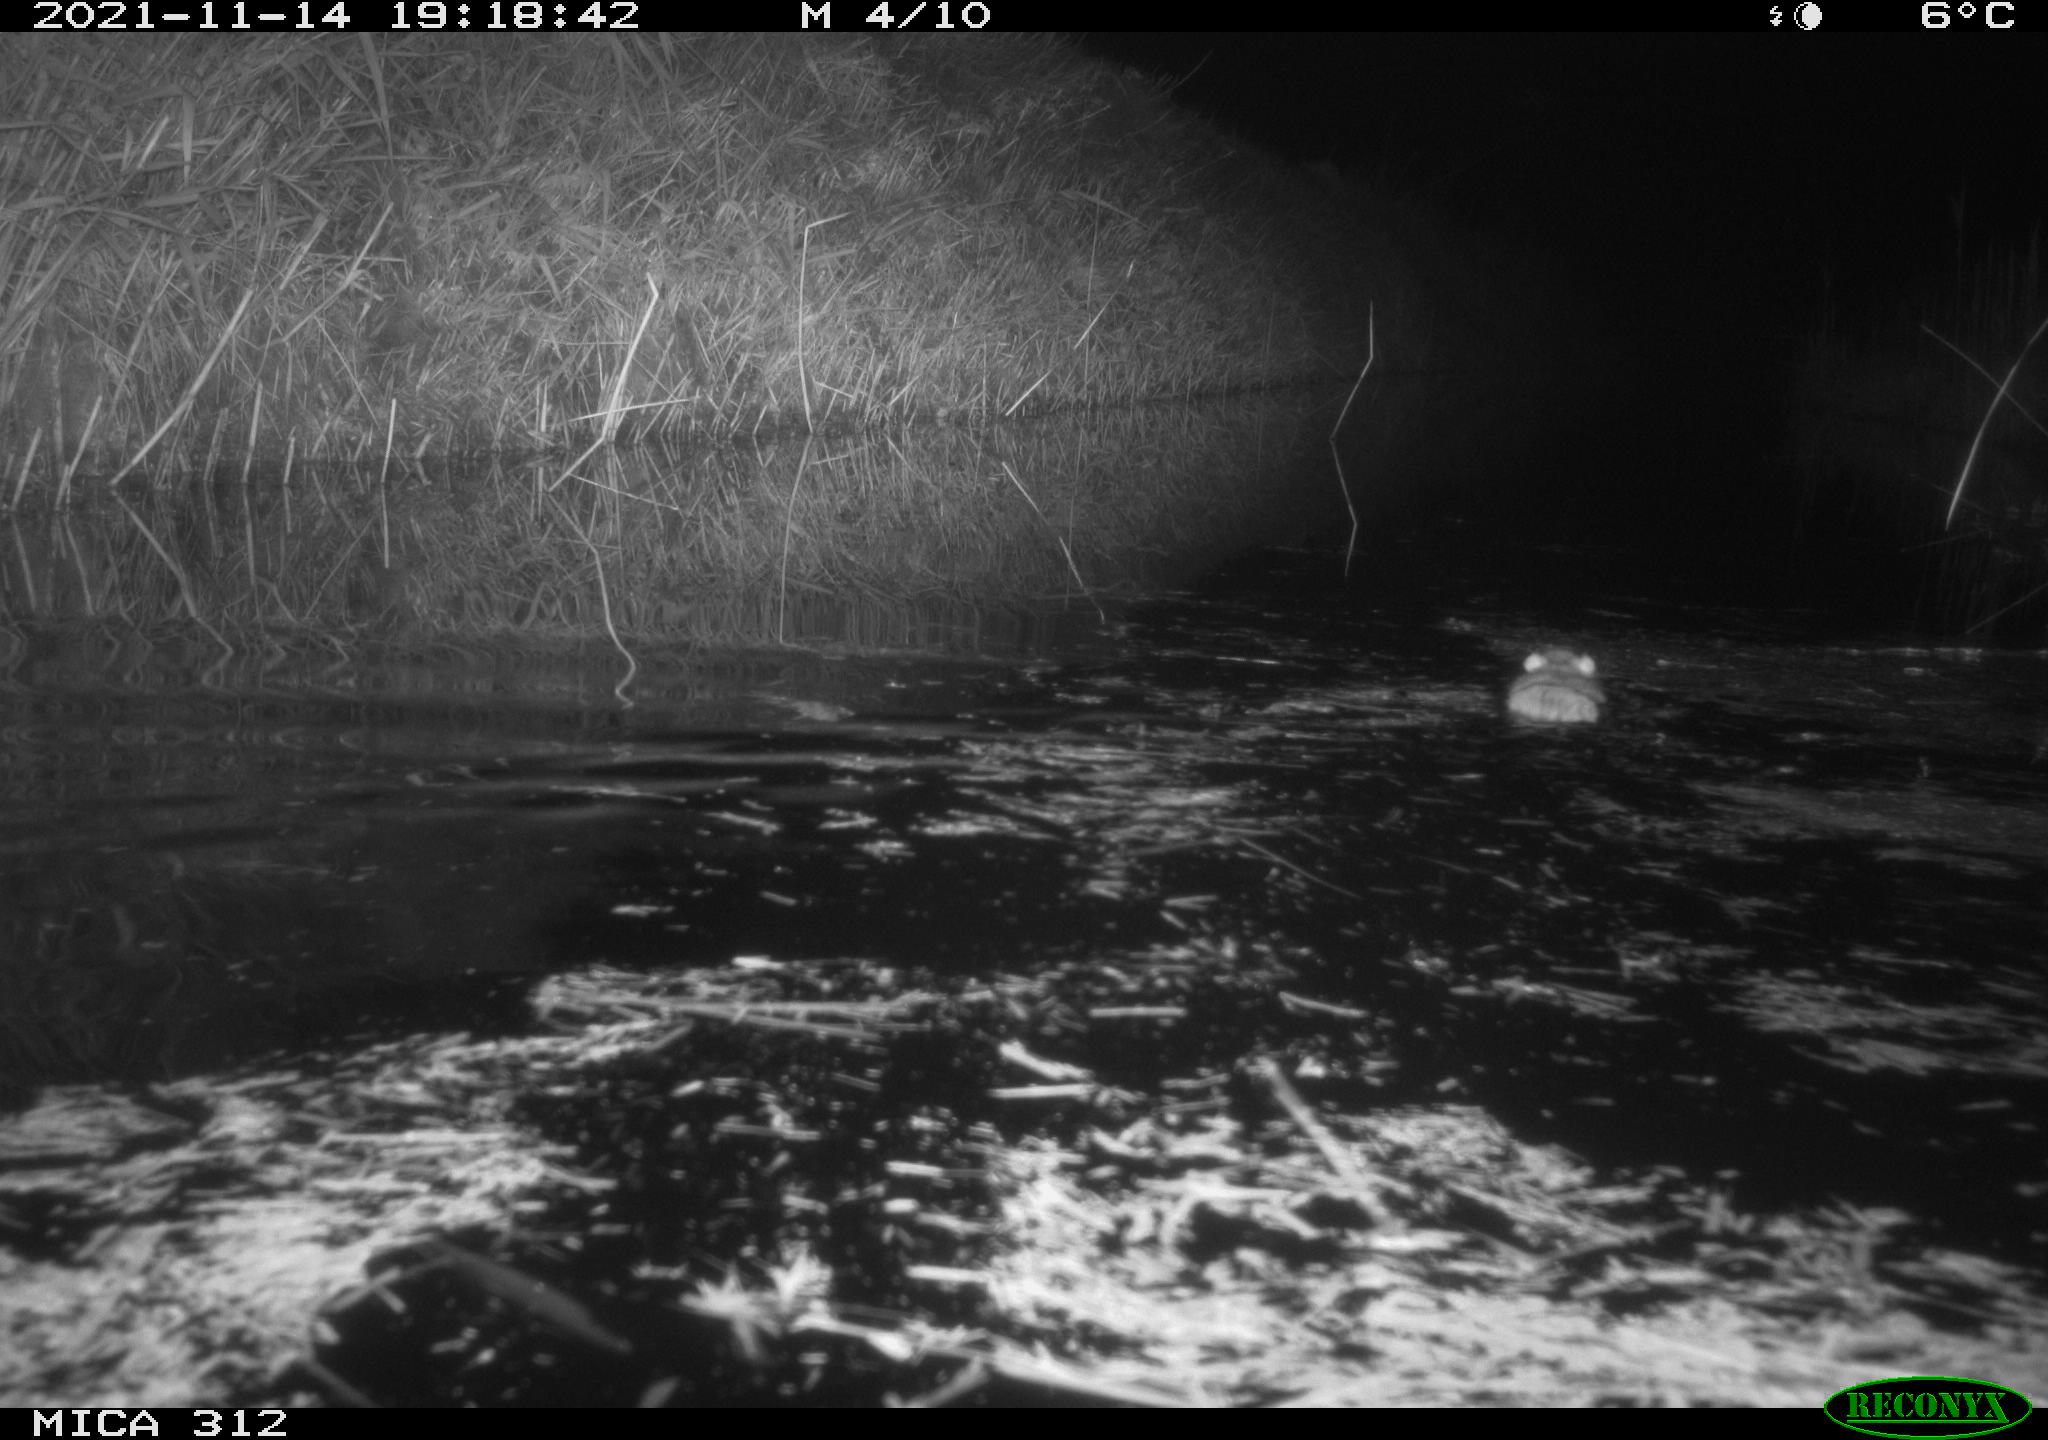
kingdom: Animalia
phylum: Chordata
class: Mammalia
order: Rodentia
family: Muridae
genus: Rattus
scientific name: Rattus norvegicus
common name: Brown rat
